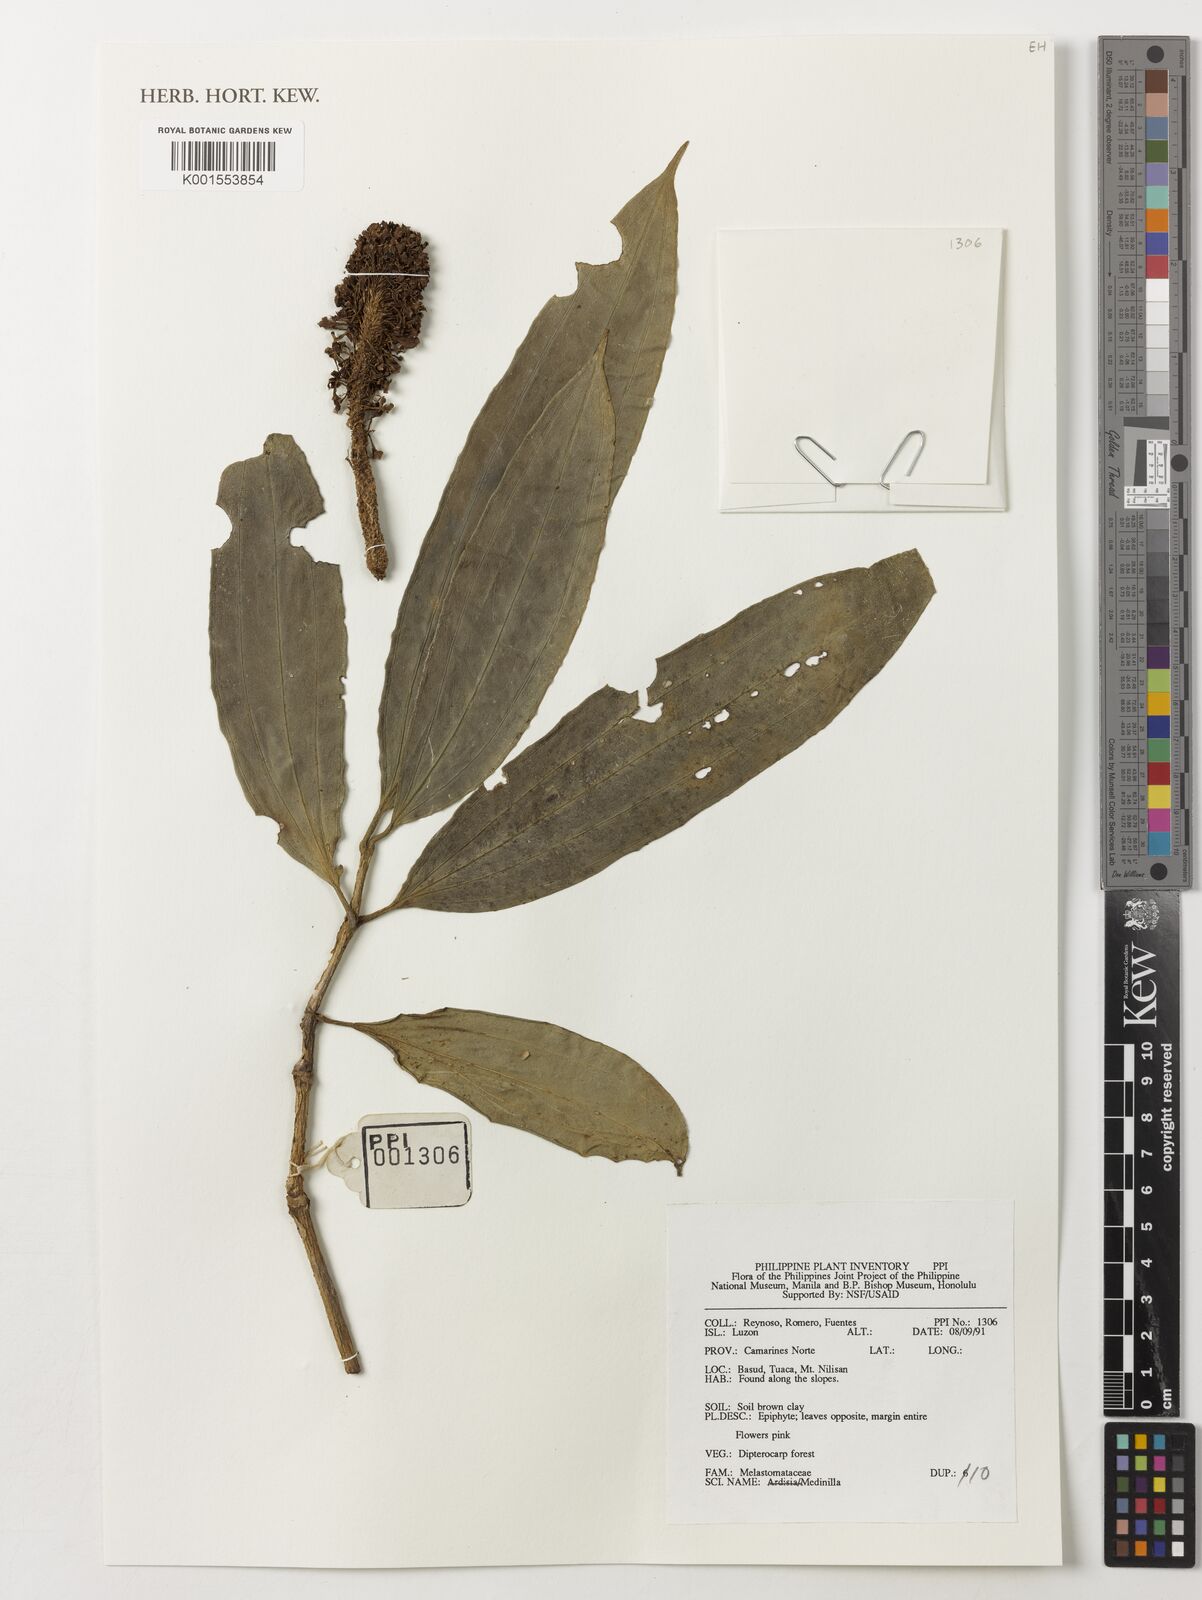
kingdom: Plantae
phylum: Tracheophyta
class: Magnoliopsida
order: Myrtales
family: Melastomataceae
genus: Medinilla
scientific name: Medinilla
